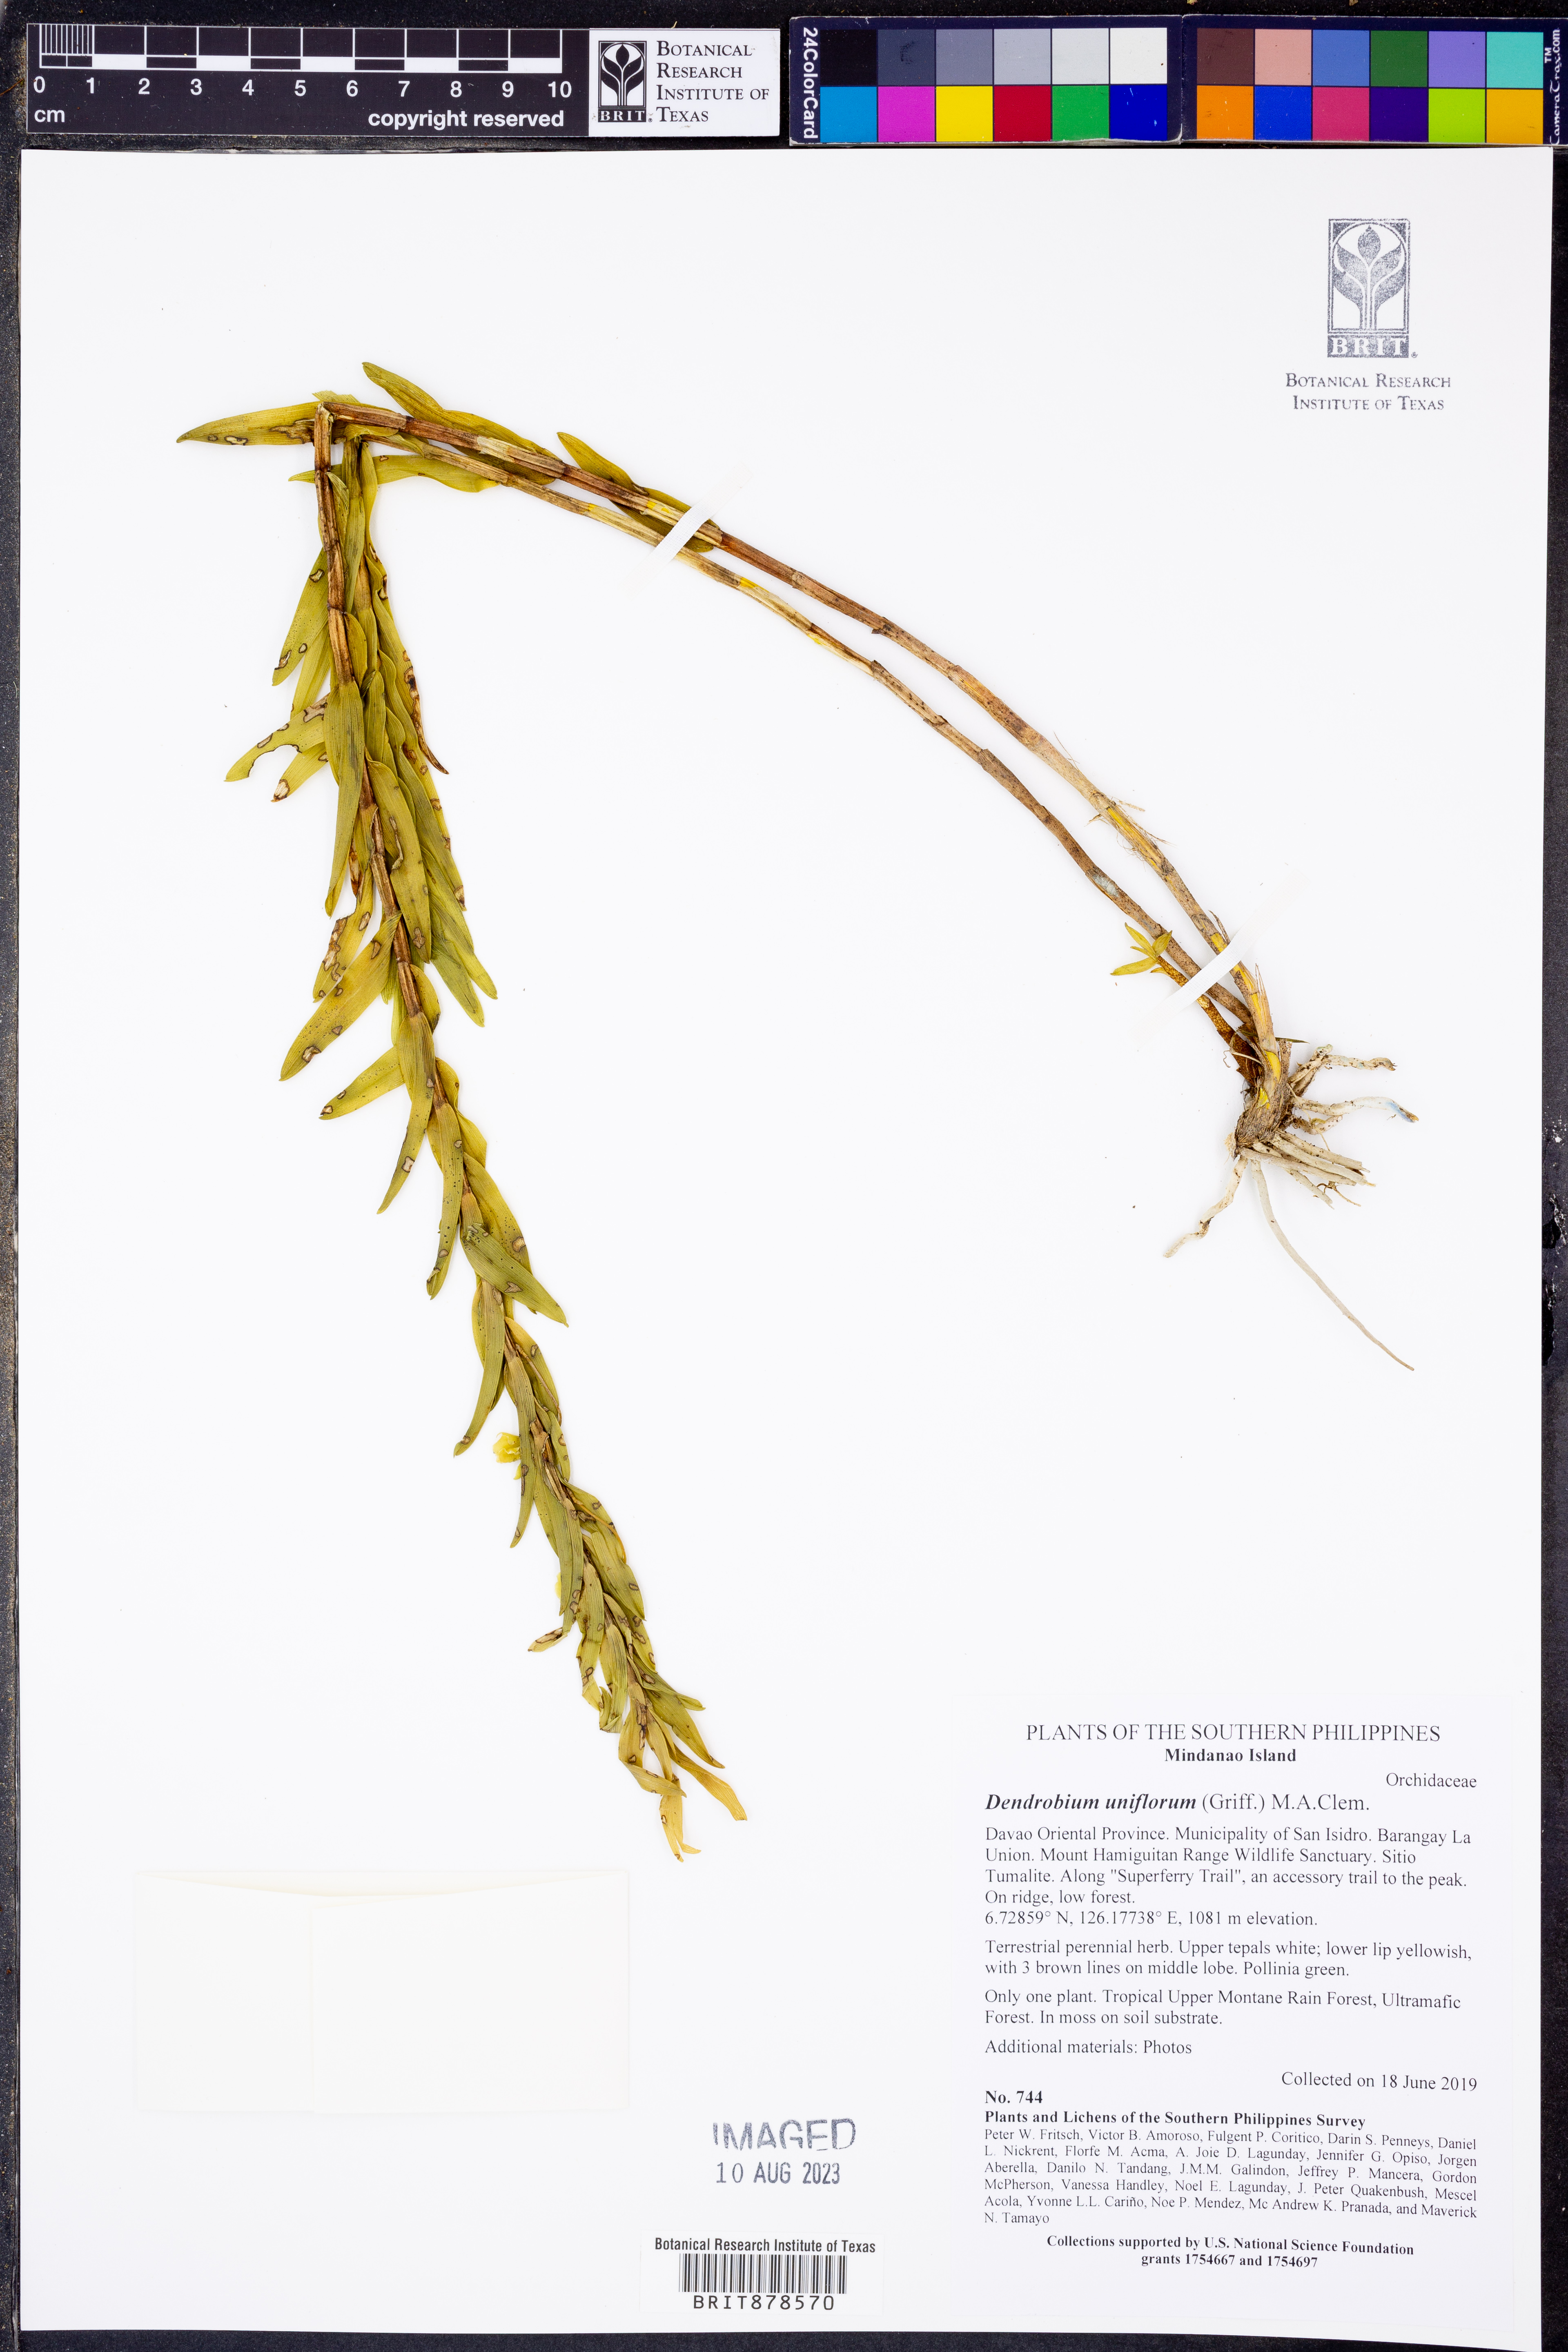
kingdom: Plantae
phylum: Tracheophyta
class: Liliopsida
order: Asparagales
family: Orchidaceae
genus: Dendrobium
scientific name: Dendrobium uniflorum
